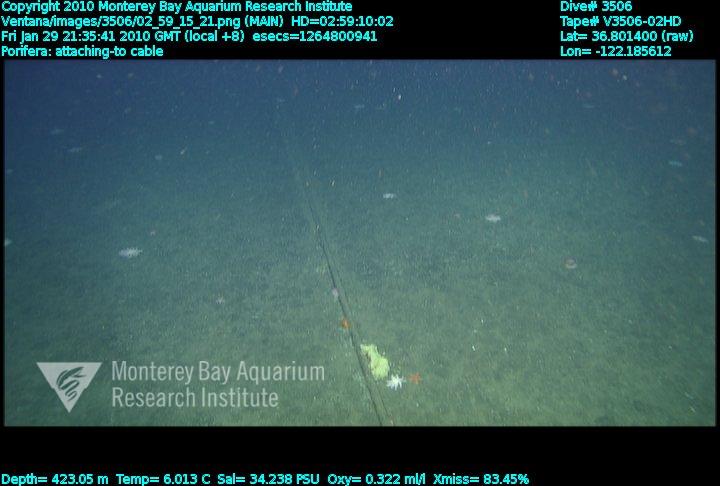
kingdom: Animalia
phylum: Porifera
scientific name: Porifera
